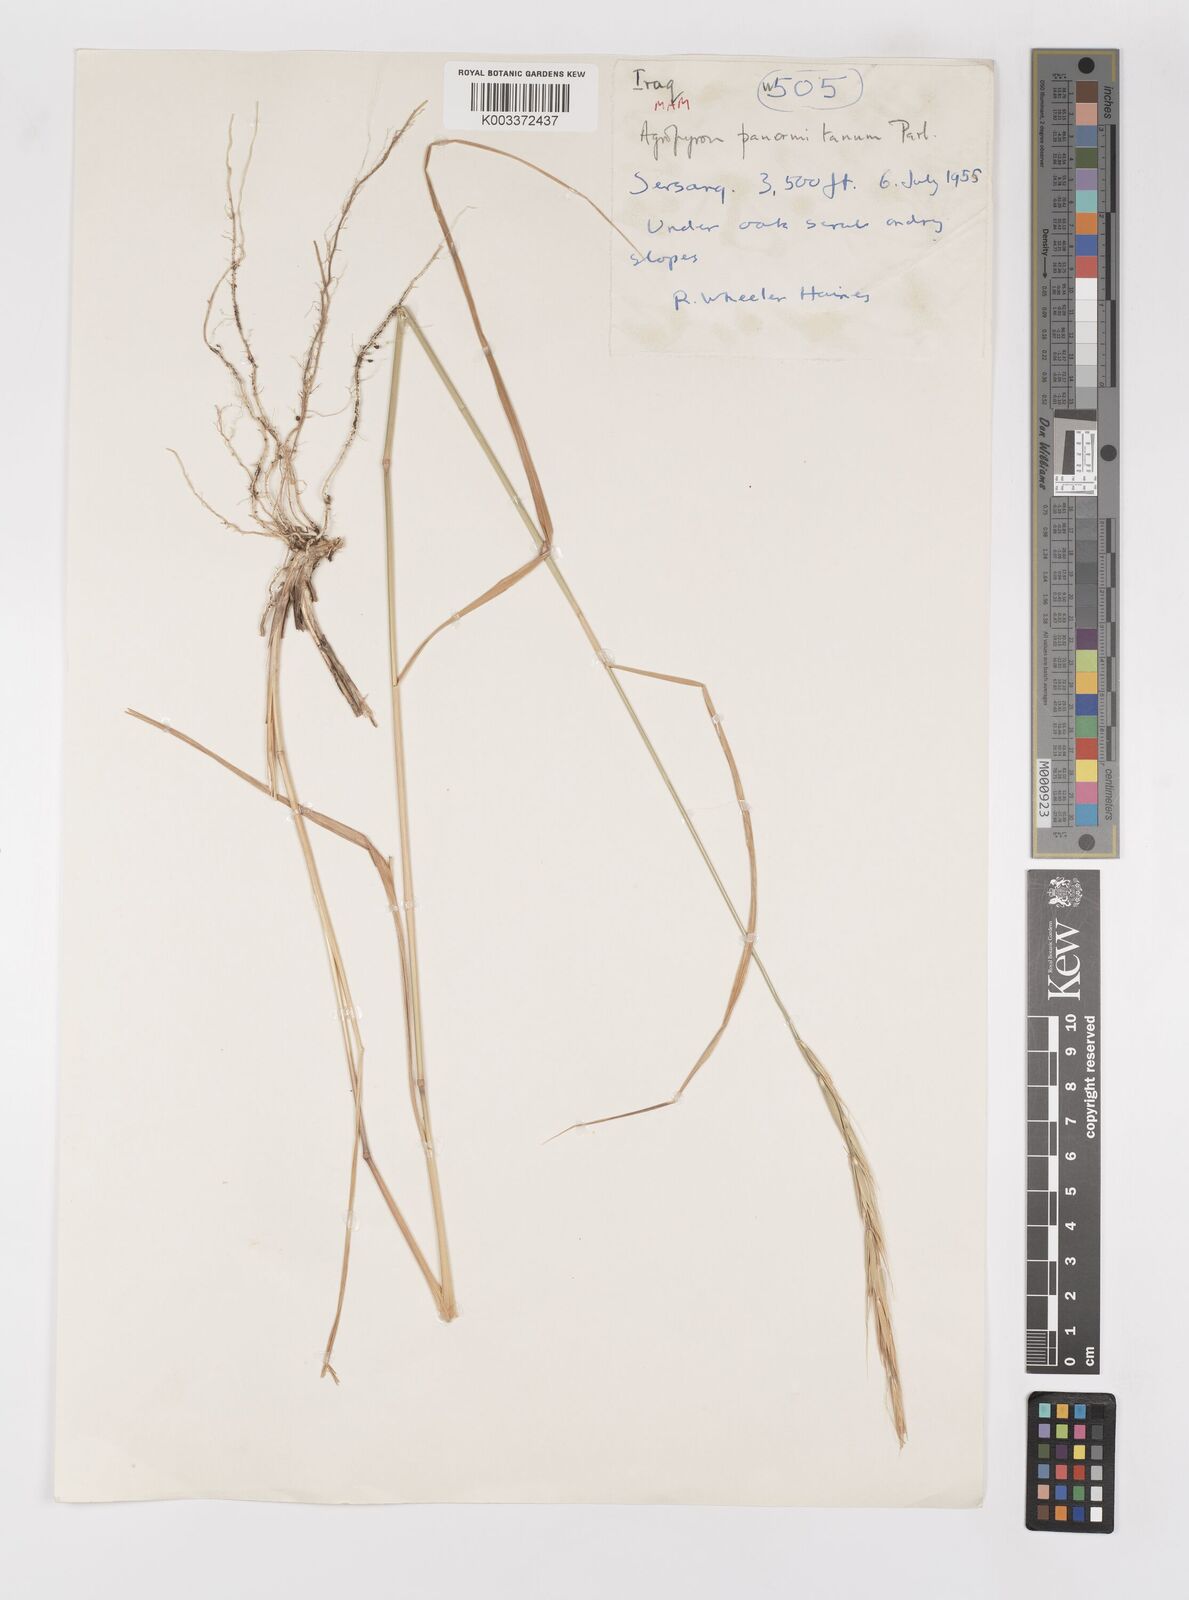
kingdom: Plantae
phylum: Tracheophyta
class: Liliopsida
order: Poales
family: Poaceae
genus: Elymus
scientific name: Elymus panormitanus
